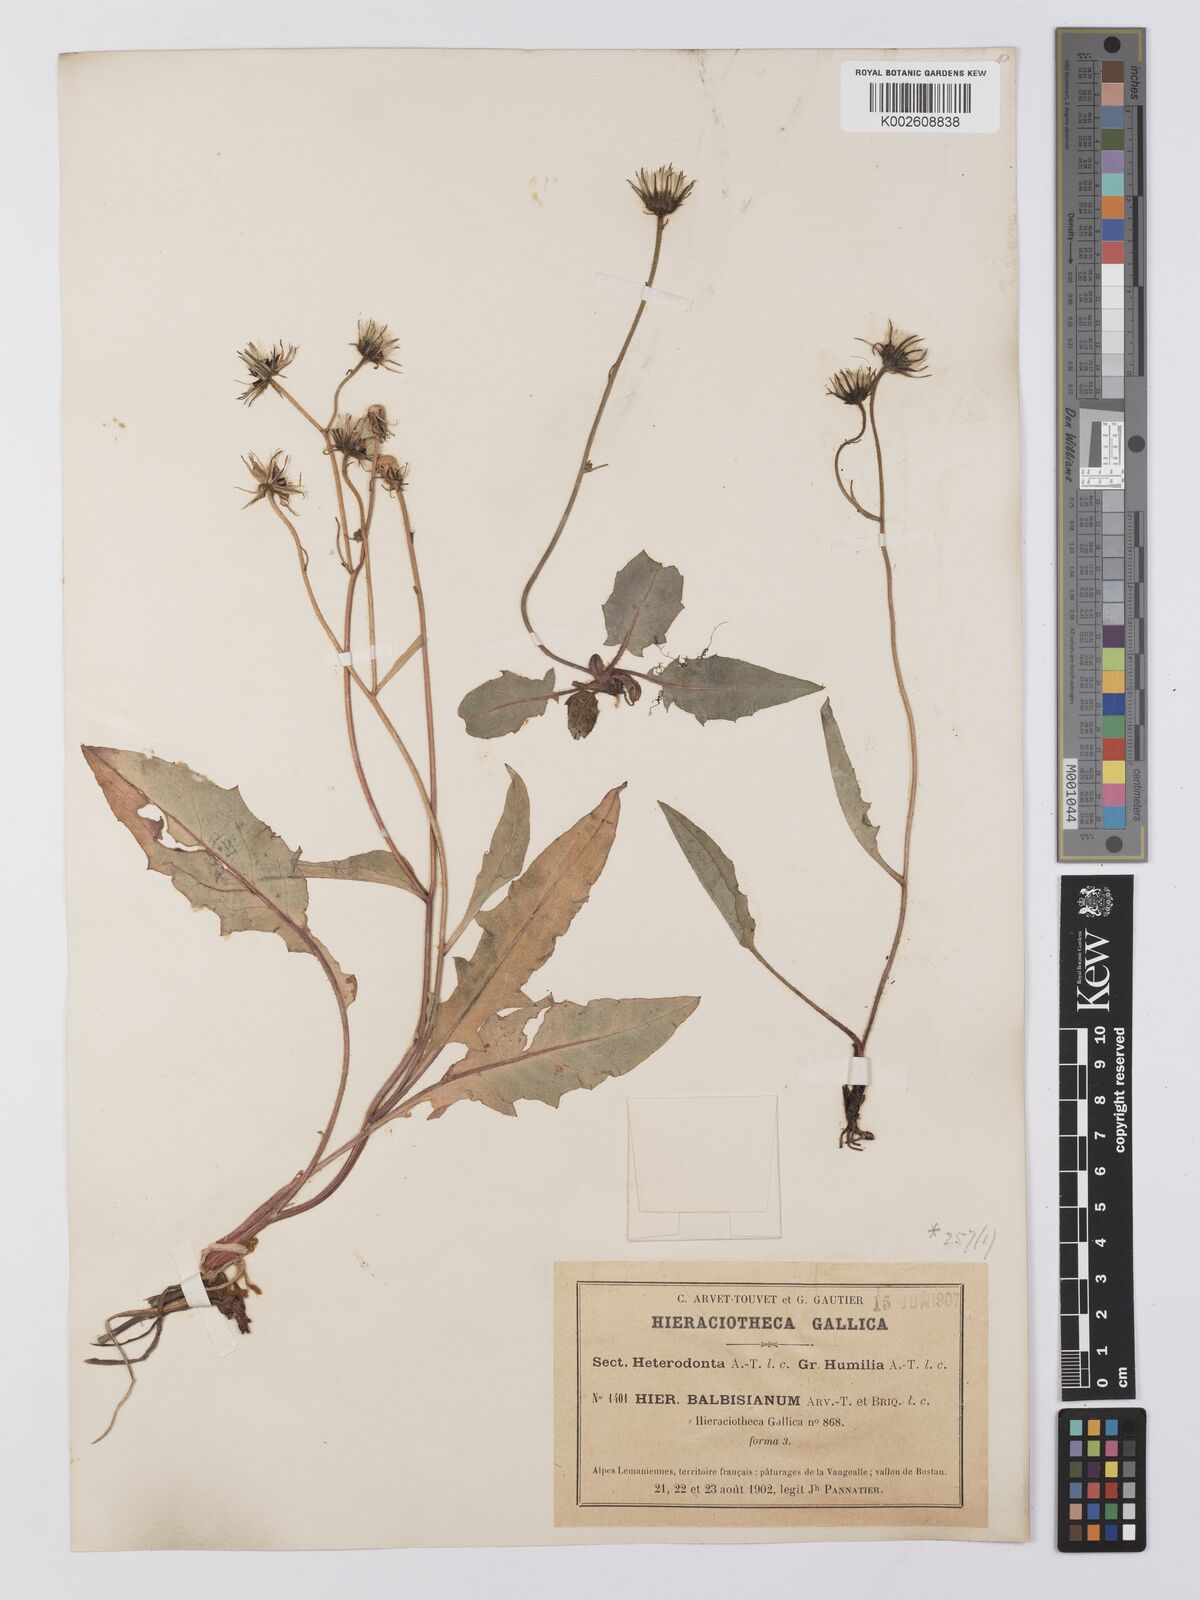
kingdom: Plantae
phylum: Tracheophyta
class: Magnoliopsida
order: Asterales
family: Asteraceae
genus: Hieracium
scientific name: Hieracium
